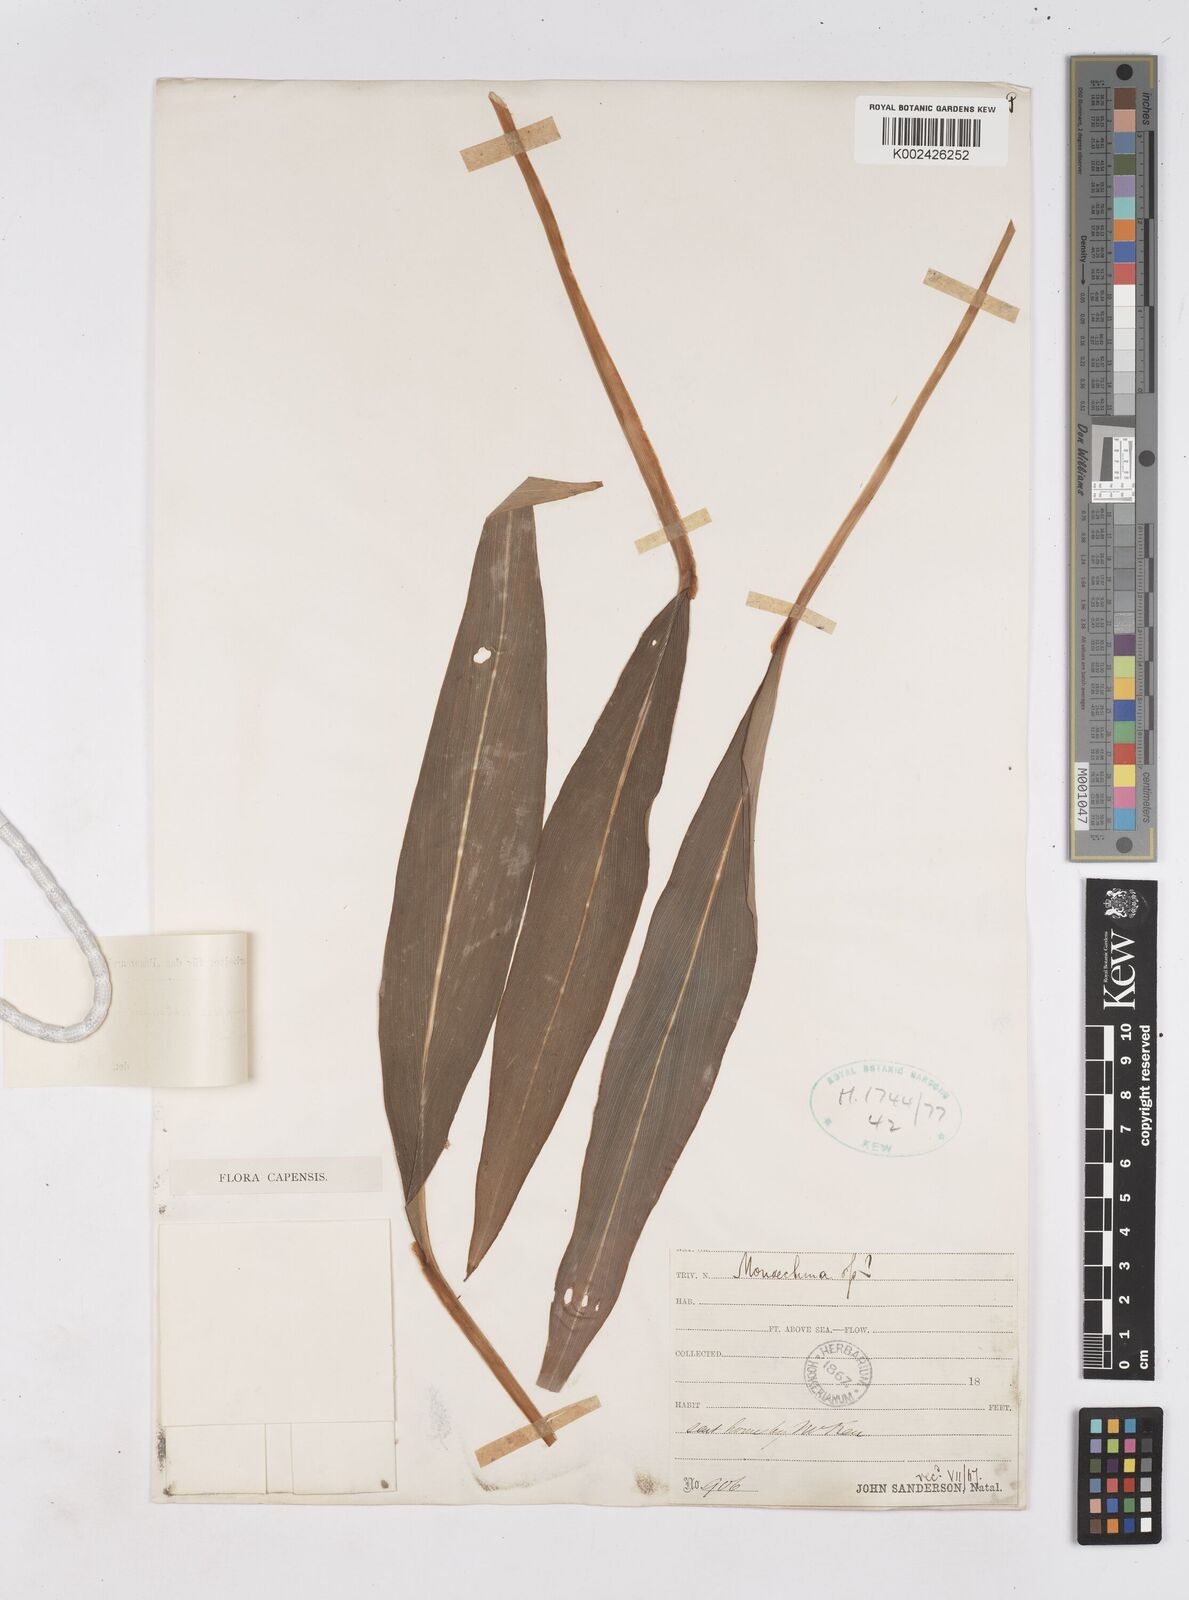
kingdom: Plantae
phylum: Tracheophyta
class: Liliopsida
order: Zingiberales
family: Zingiberaceae
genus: Siphonochilus
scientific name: Siphonochilus aethiopicus
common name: African-ginger
